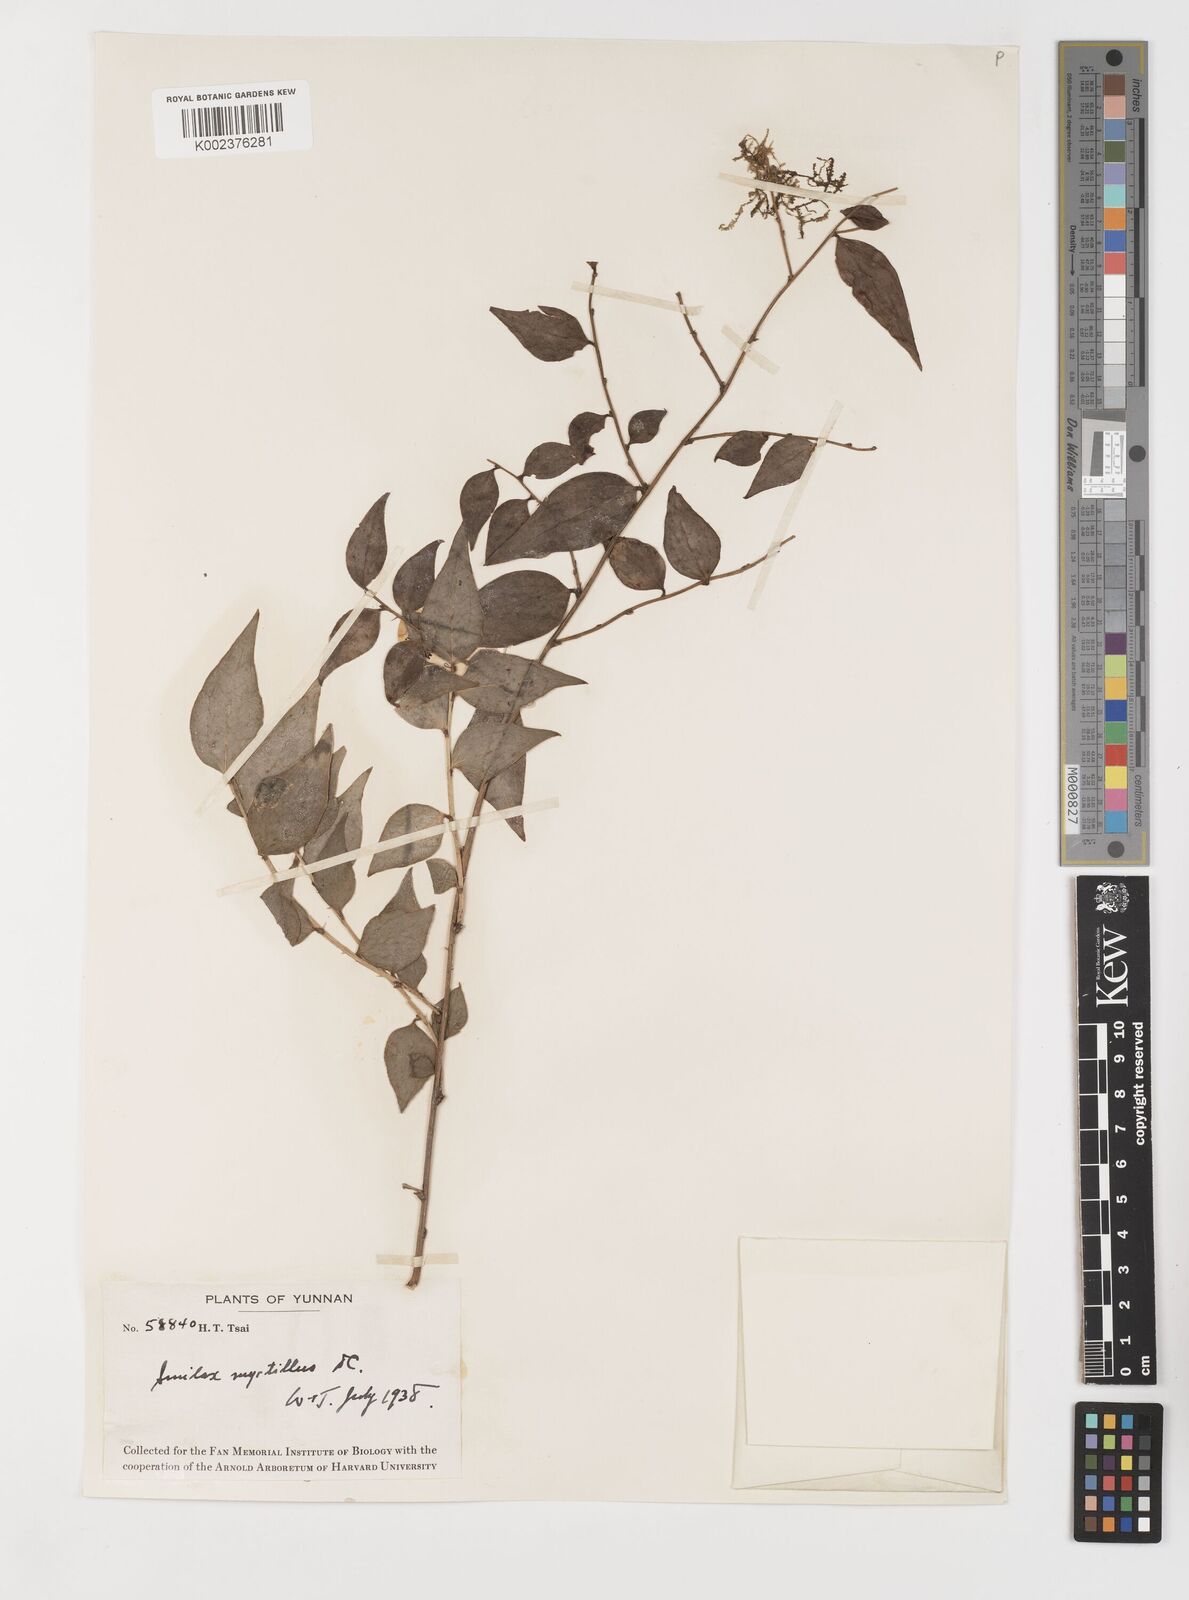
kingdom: Plantae
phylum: Tracheophyta
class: Liliopsida
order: Liliales
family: Smilacaceae
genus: Smilax
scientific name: Smilax myrtillus
